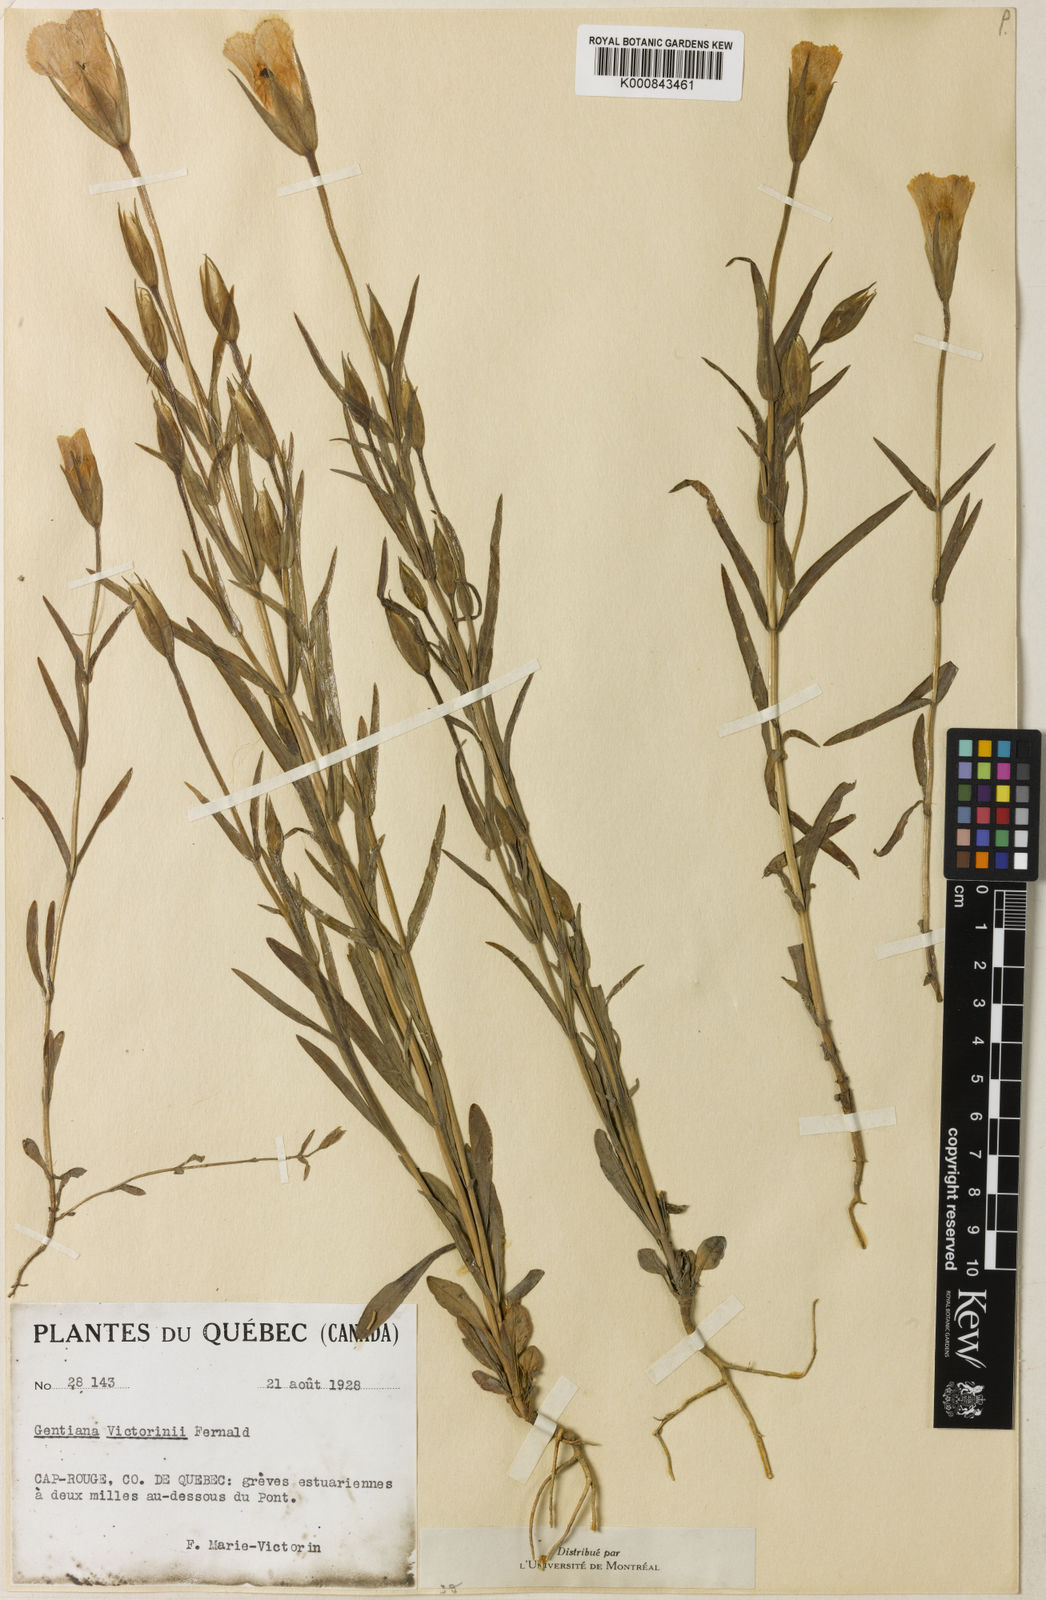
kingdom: Plantae
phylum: Tracheophyta
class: Magnoliopsida
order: Gentianales
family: Gentianaceae
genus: Gentianopsis
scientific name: Gentianopsis victorinii
